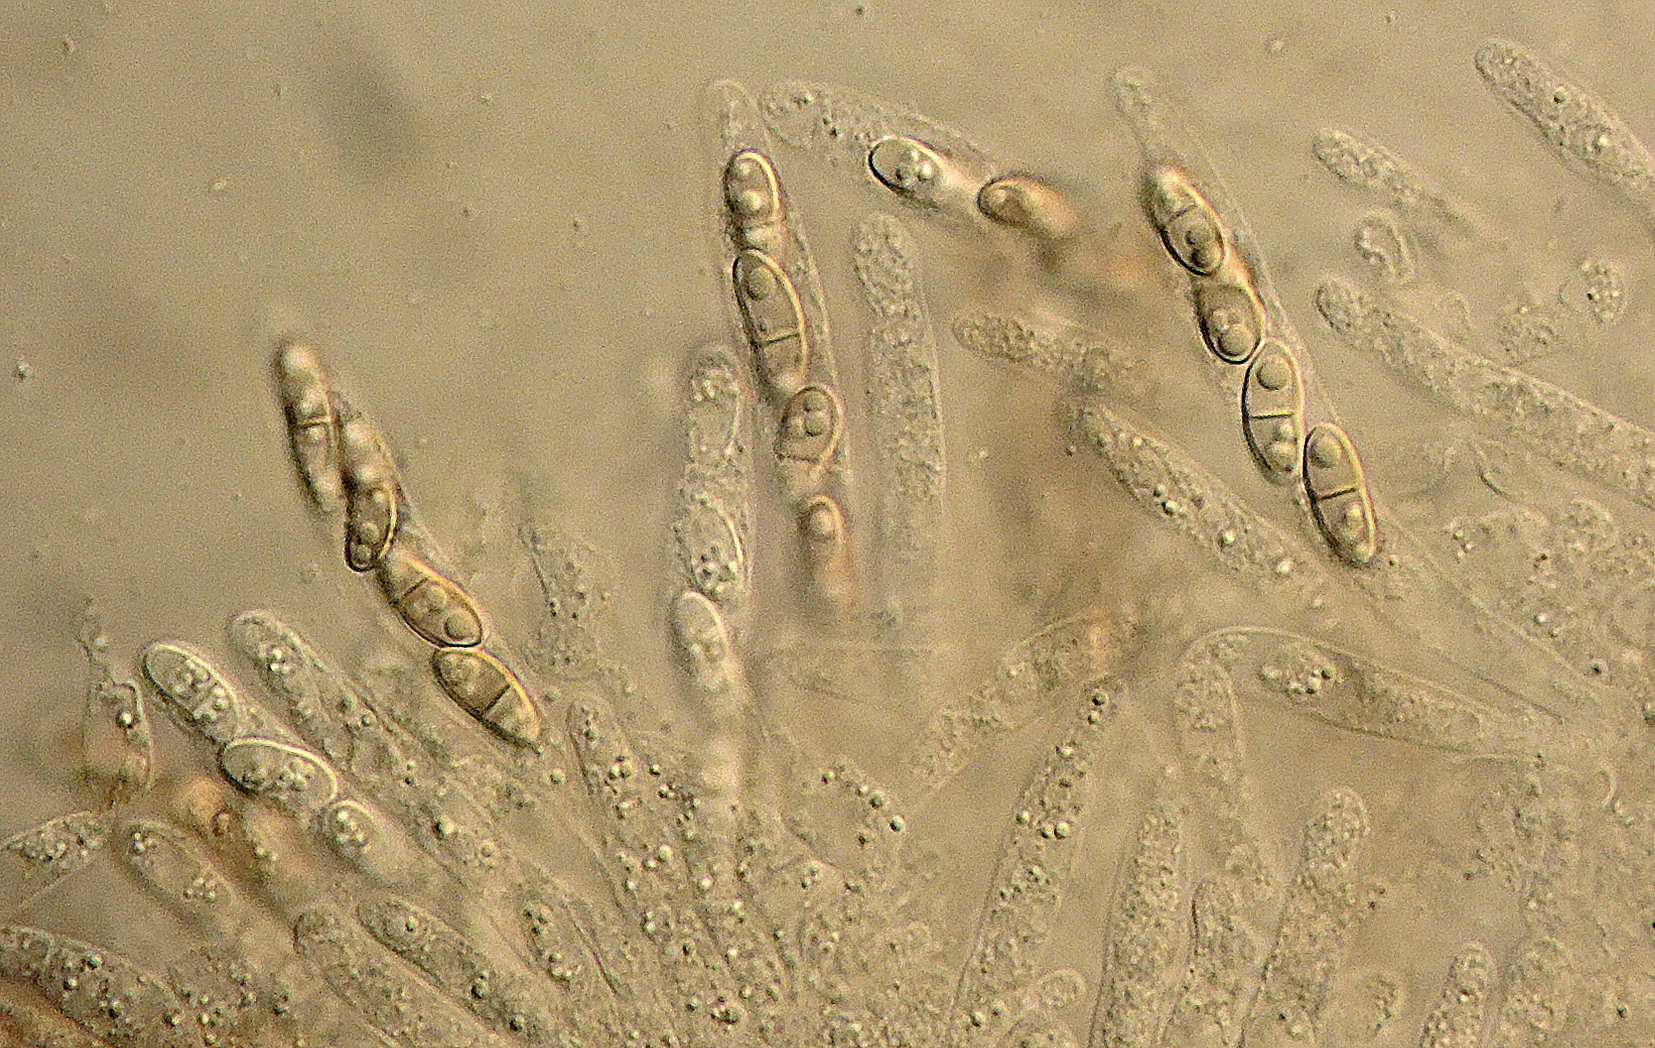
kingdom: Fungi
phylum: Ascomycota
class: Sordariomycetes
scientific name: Sordariomycetes
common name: kernesvampklassen
